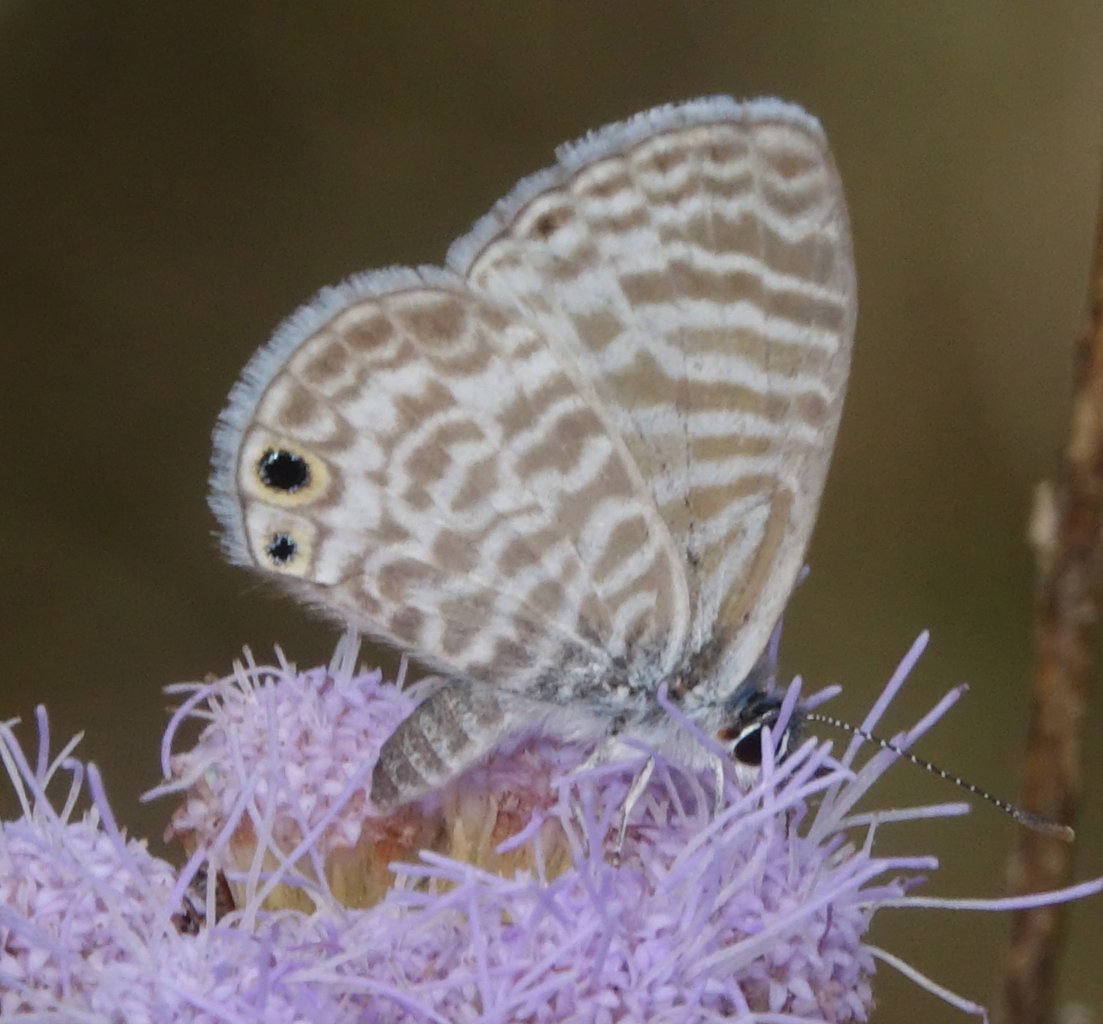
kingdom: Animalia
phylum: Arthropoda
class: Insecta
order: Lepidoptera
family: Lycaenidae
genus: Leptotes
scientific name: Leptotes marina
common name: Marine Blue
